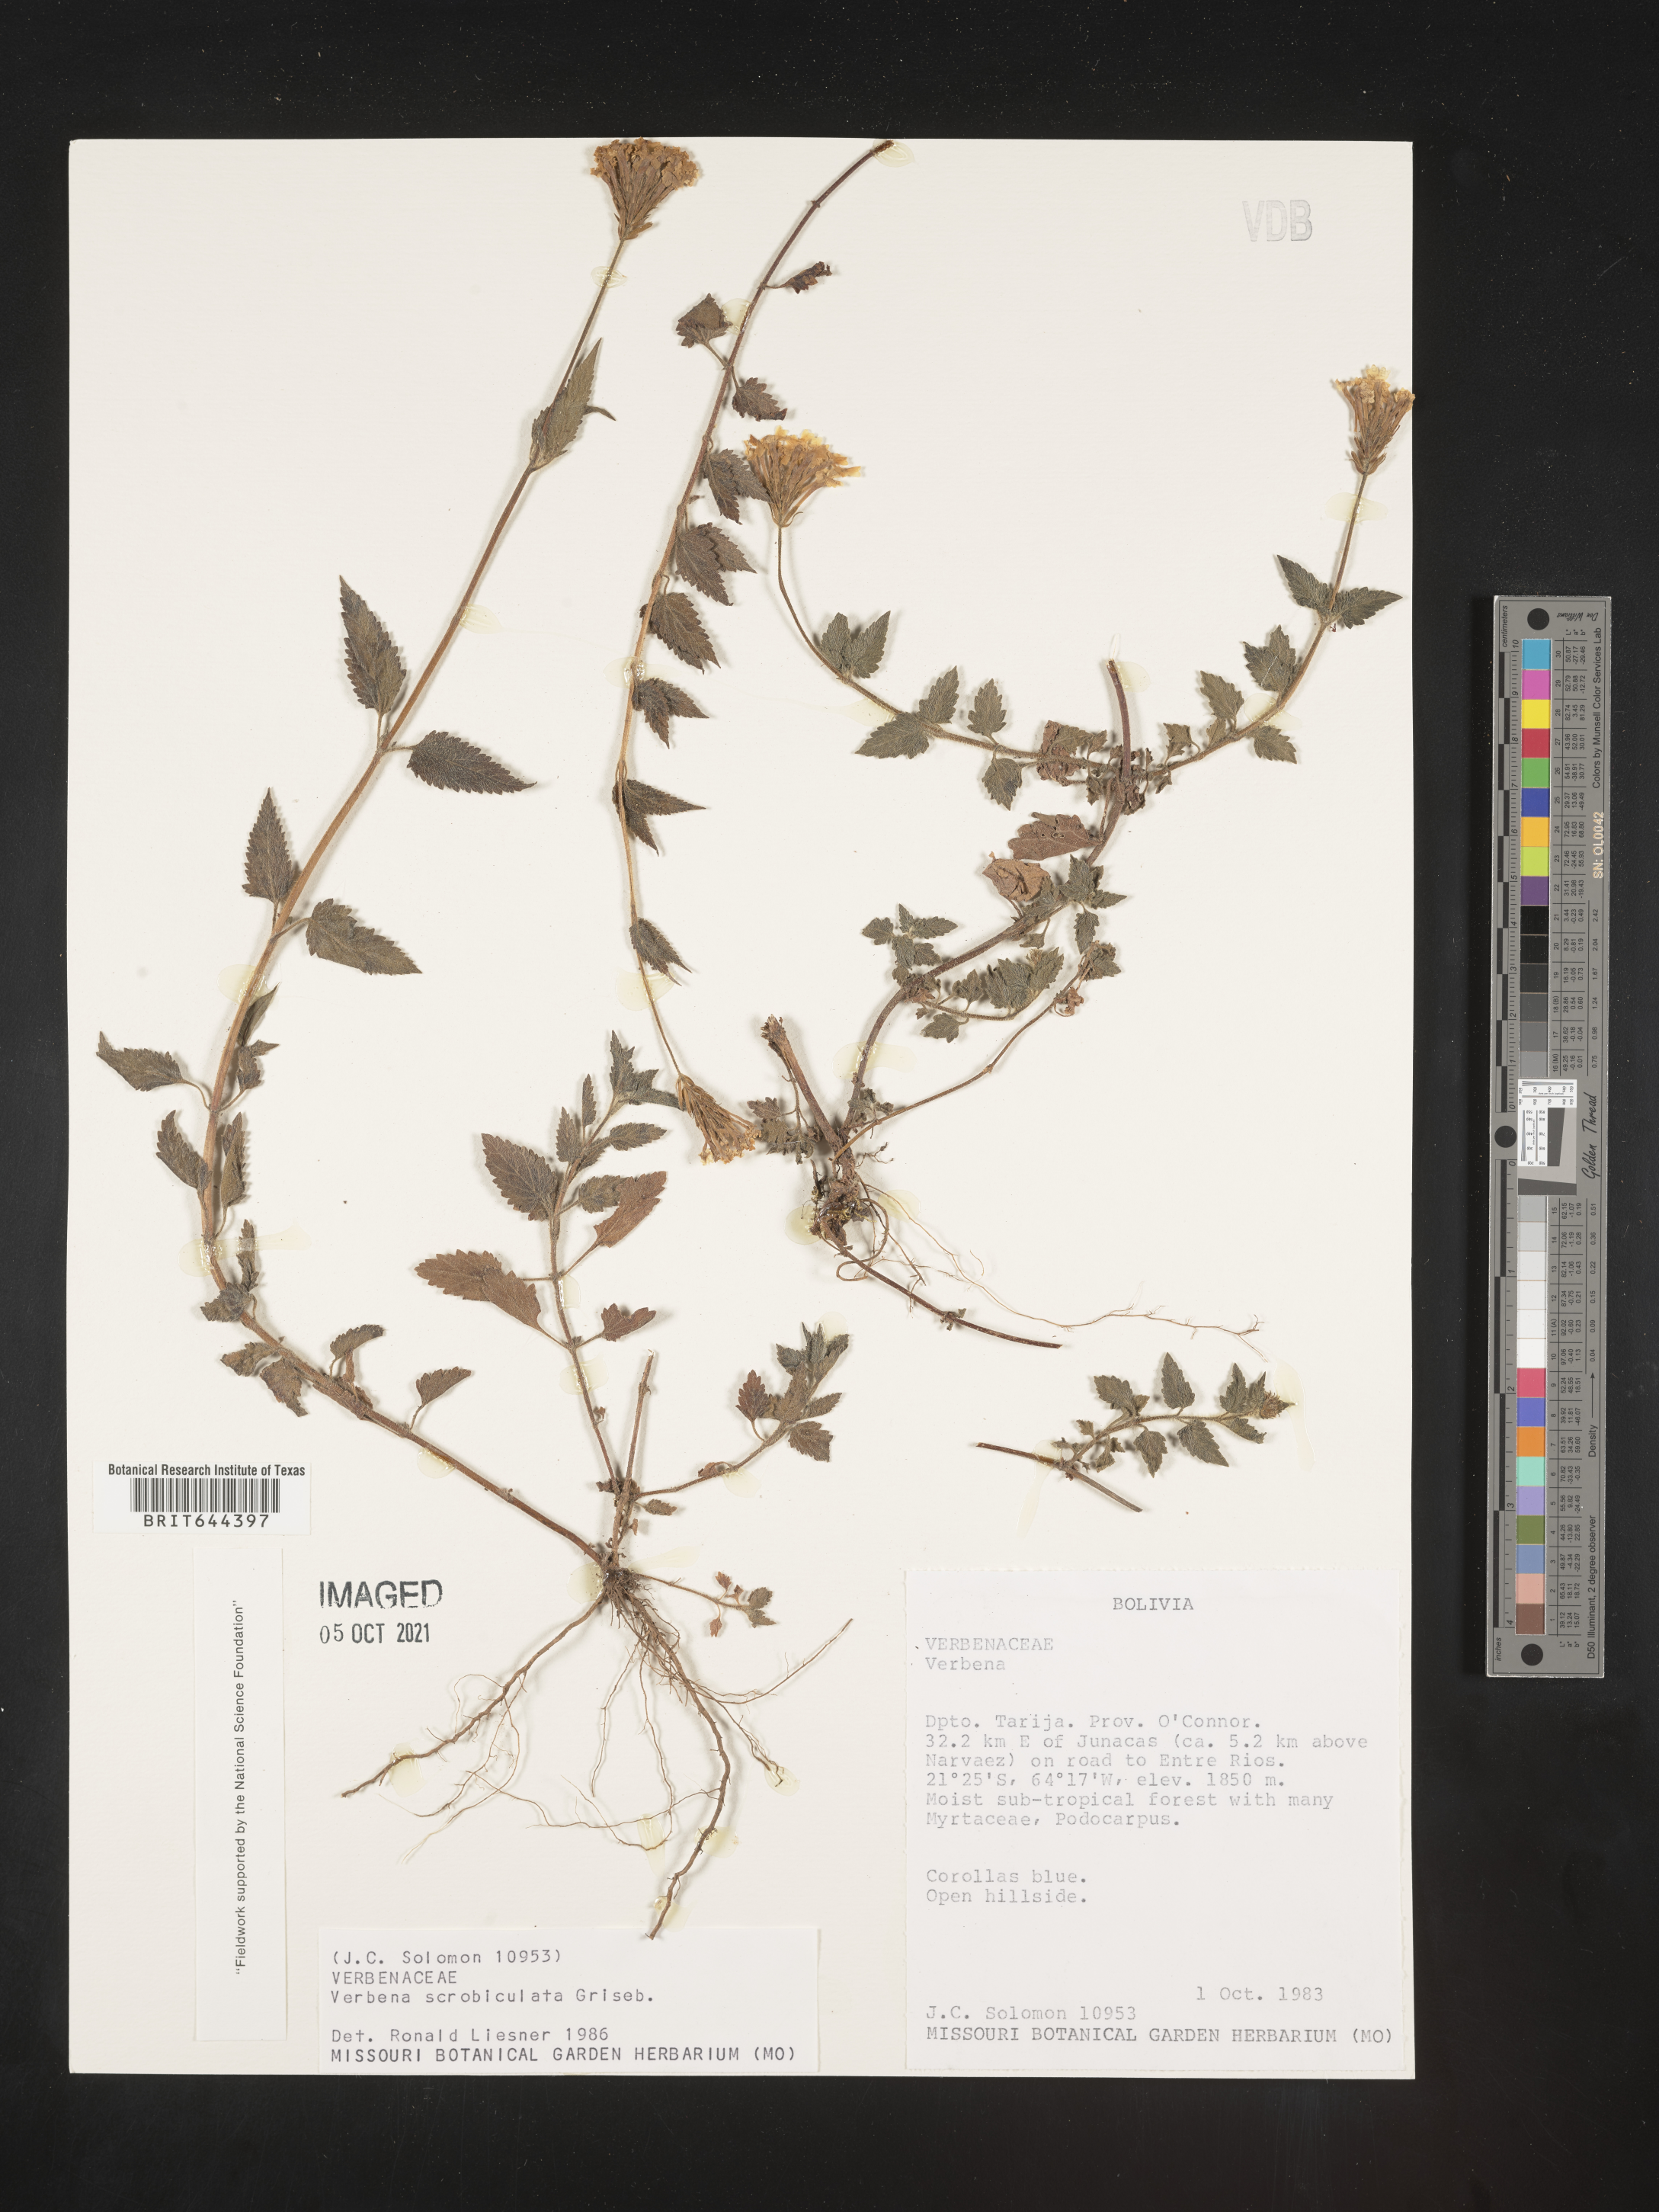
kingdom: Plantae
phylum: Tracheophyta
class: Magnoliopsida
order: Lamiales
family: Verbenaceae
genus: Verbena
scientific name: Verbena
